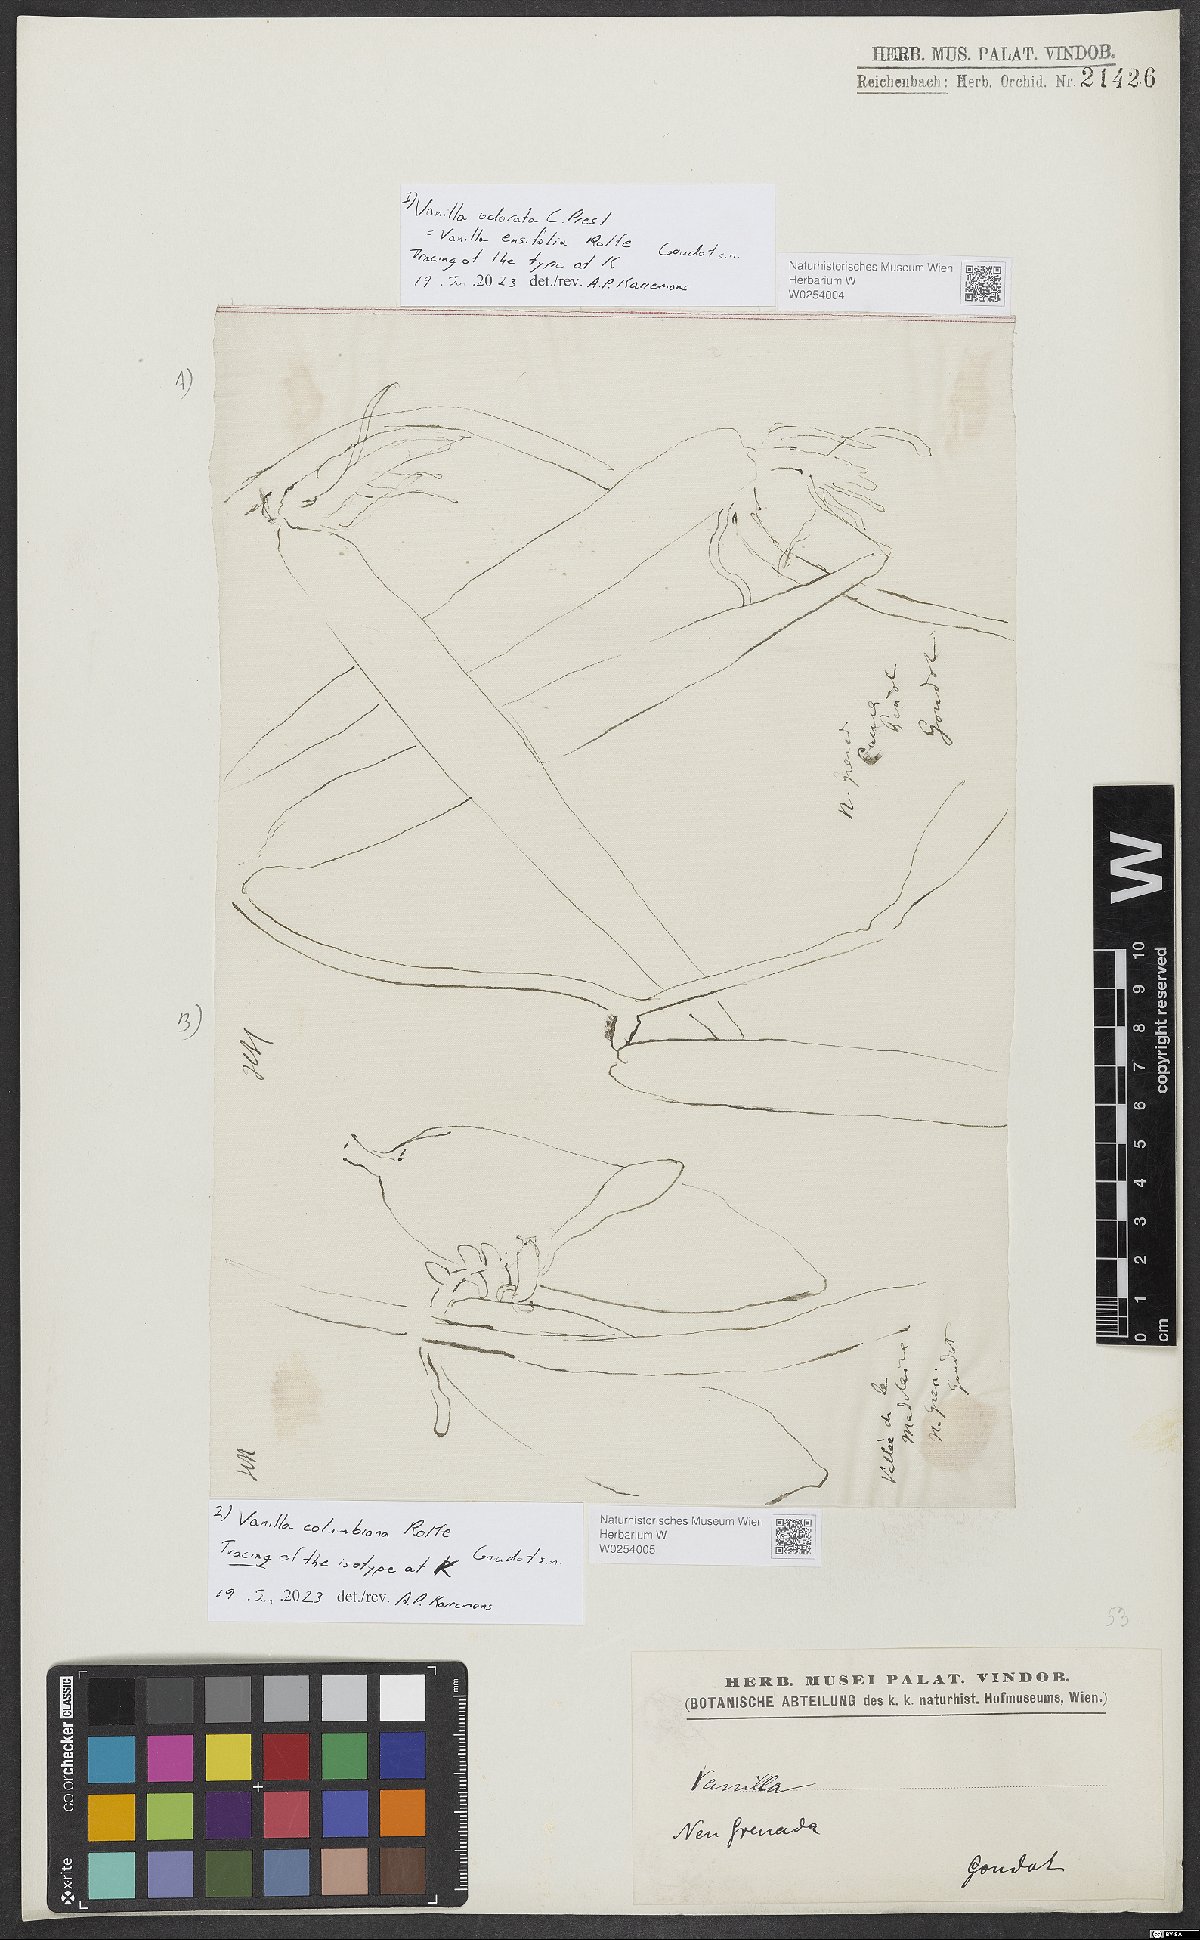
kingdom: Plantae
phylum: Tracheophyta
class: Liliopsida
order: Asparagales
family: Orchidaceae
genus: Vanilla
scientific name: Vanilla
